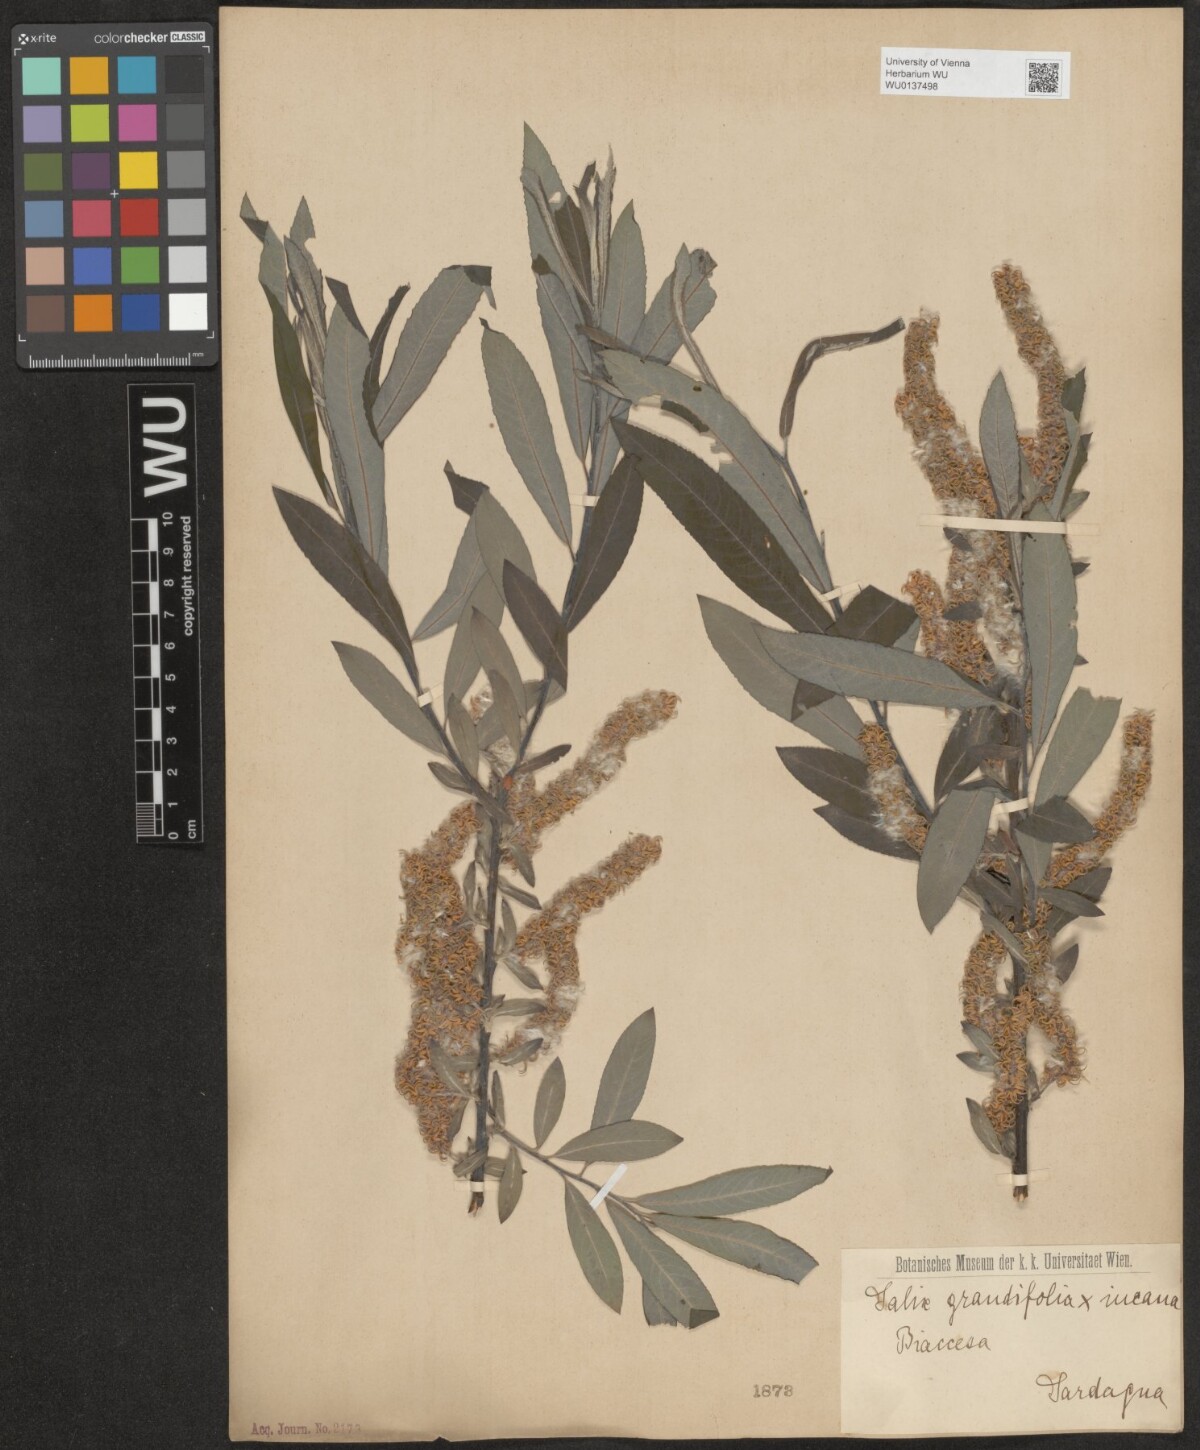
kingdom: Plantae
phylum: Tracheophyta
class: Magnoliopsida
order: Malpighiales
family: Salicaceae
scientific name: Salicaceae
